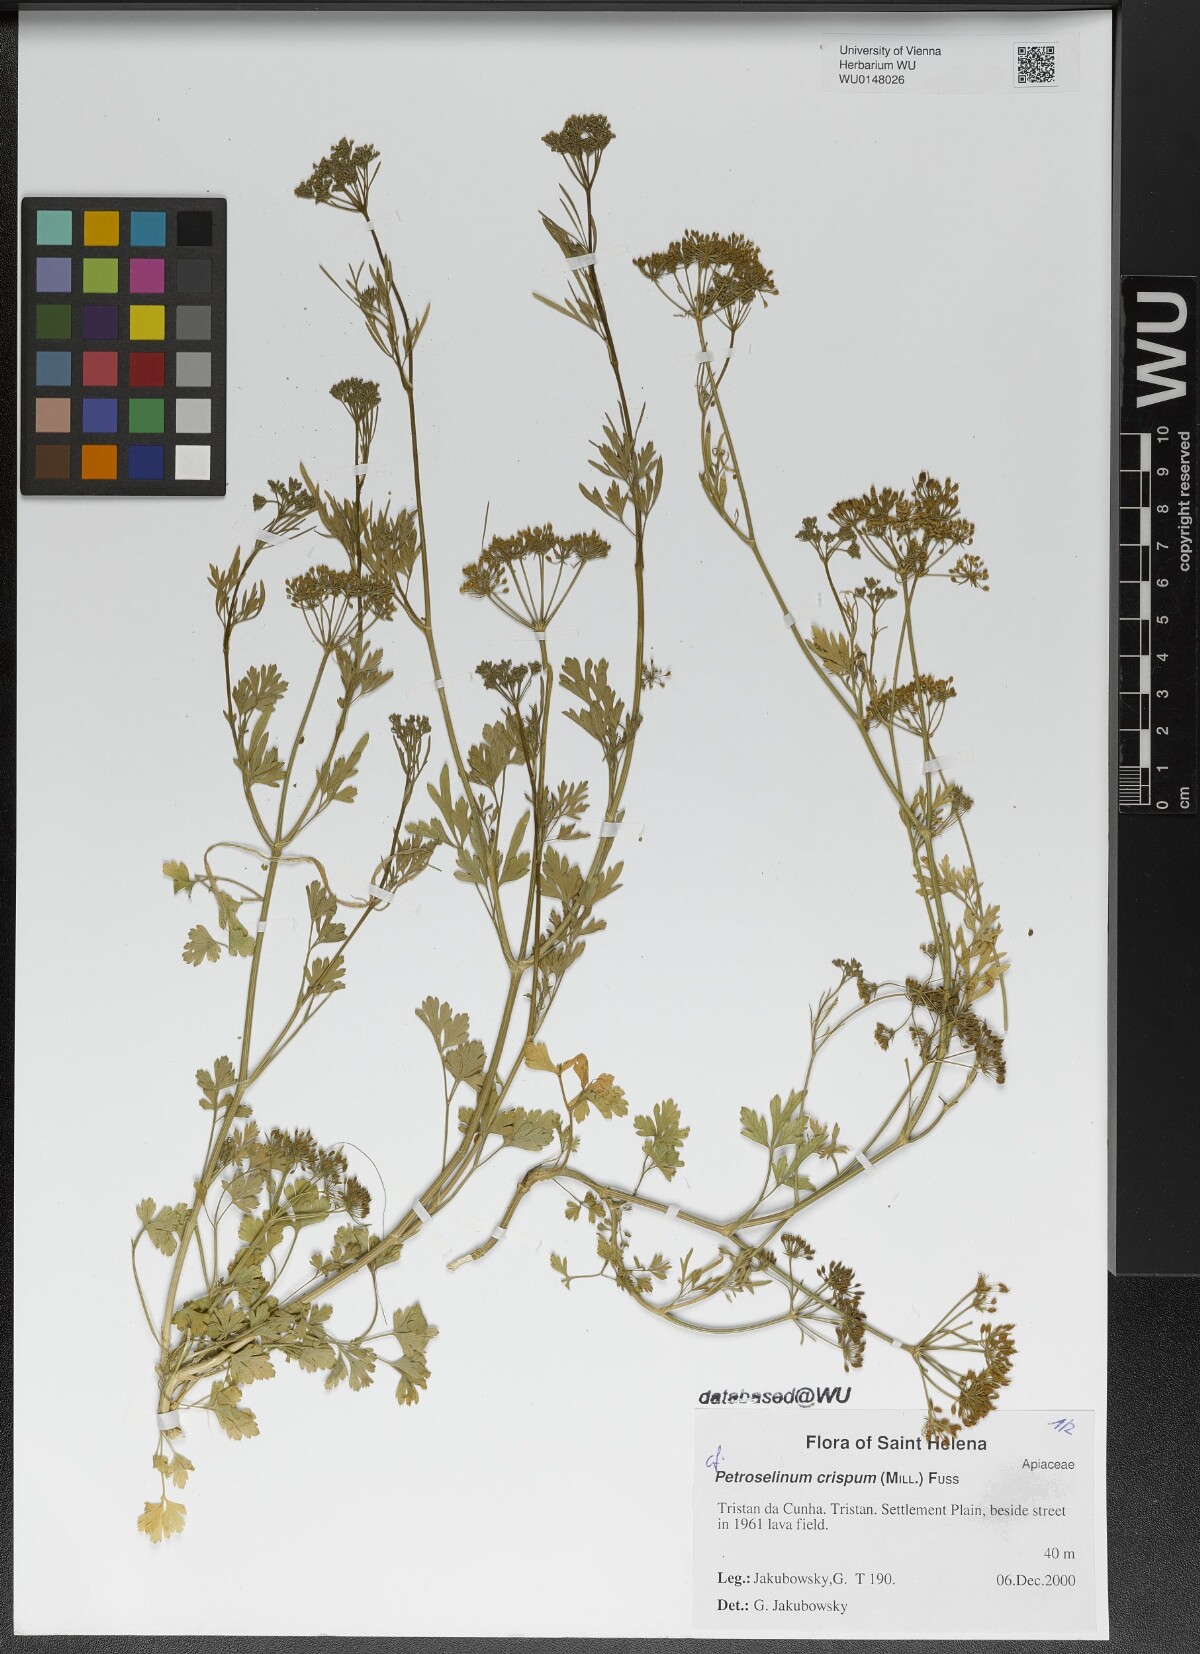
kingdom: Plantae
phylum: Tracheophyta
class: Magnoliopsida
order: Apiales
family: Apiaceae
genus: Petroselinum
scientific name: Petroselinum crispum
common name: Parsley
